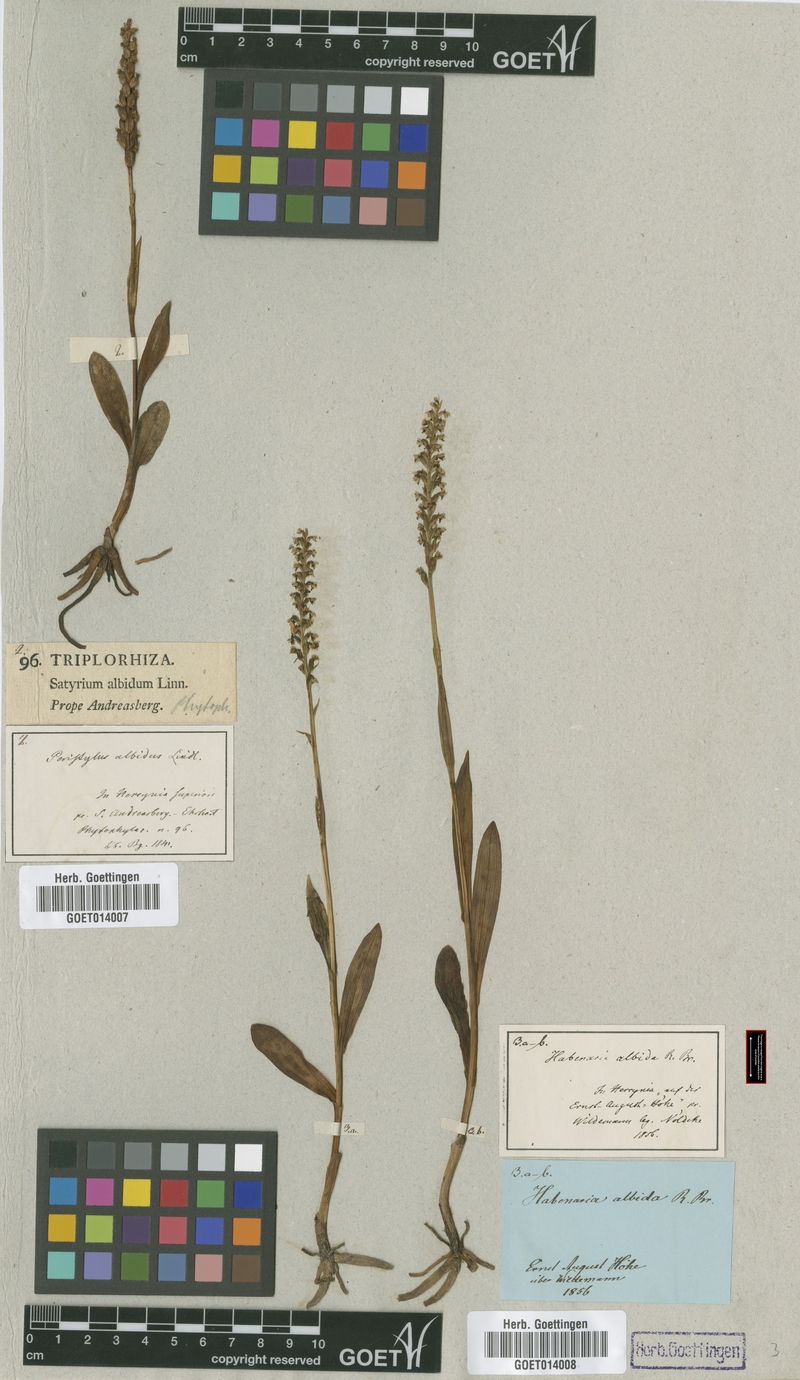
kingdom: Plantae
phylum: Tracheophyta
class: Liliopsida
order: Asparagales
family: Orchidaceae
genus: Pseudorchis
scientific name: Pseudorchis albida
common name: Small-white orchid
